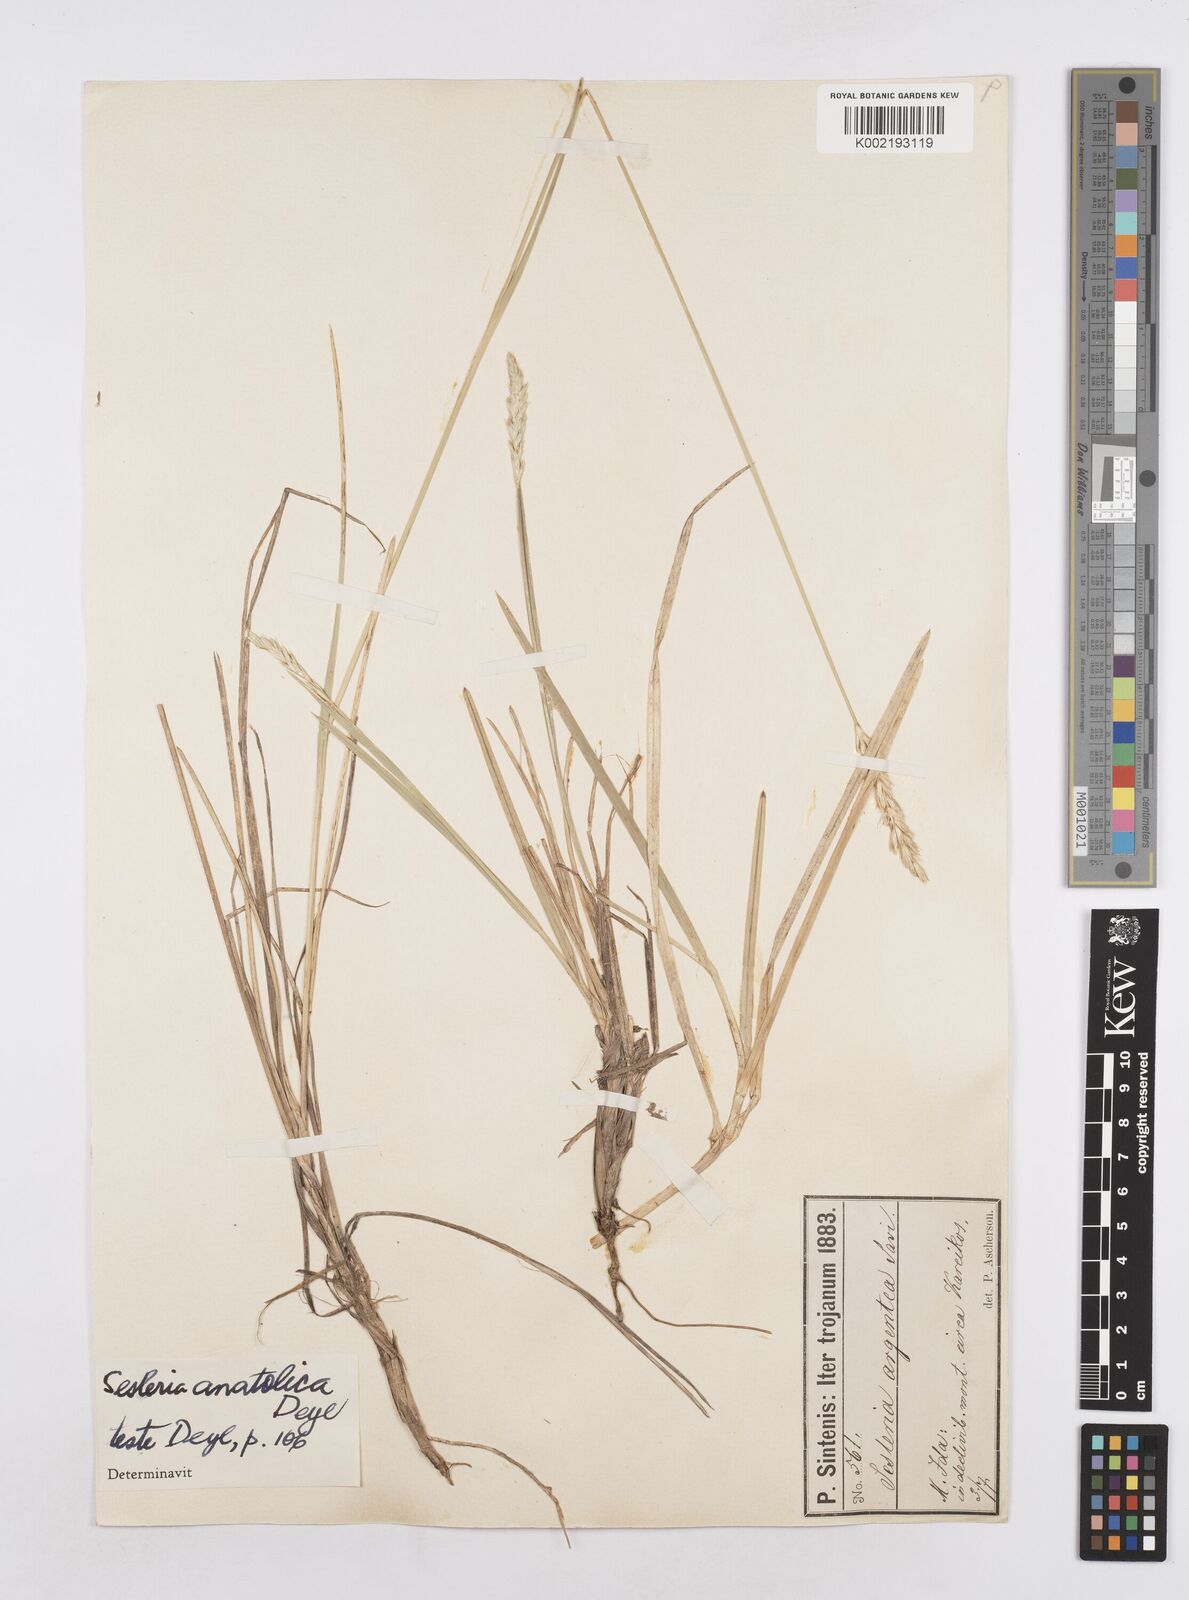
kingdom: Plantae
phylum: Tracheophyta
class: Liliopsida
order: Poales
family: Poaceae
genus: Sesleria
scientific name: Sesleria argentea
